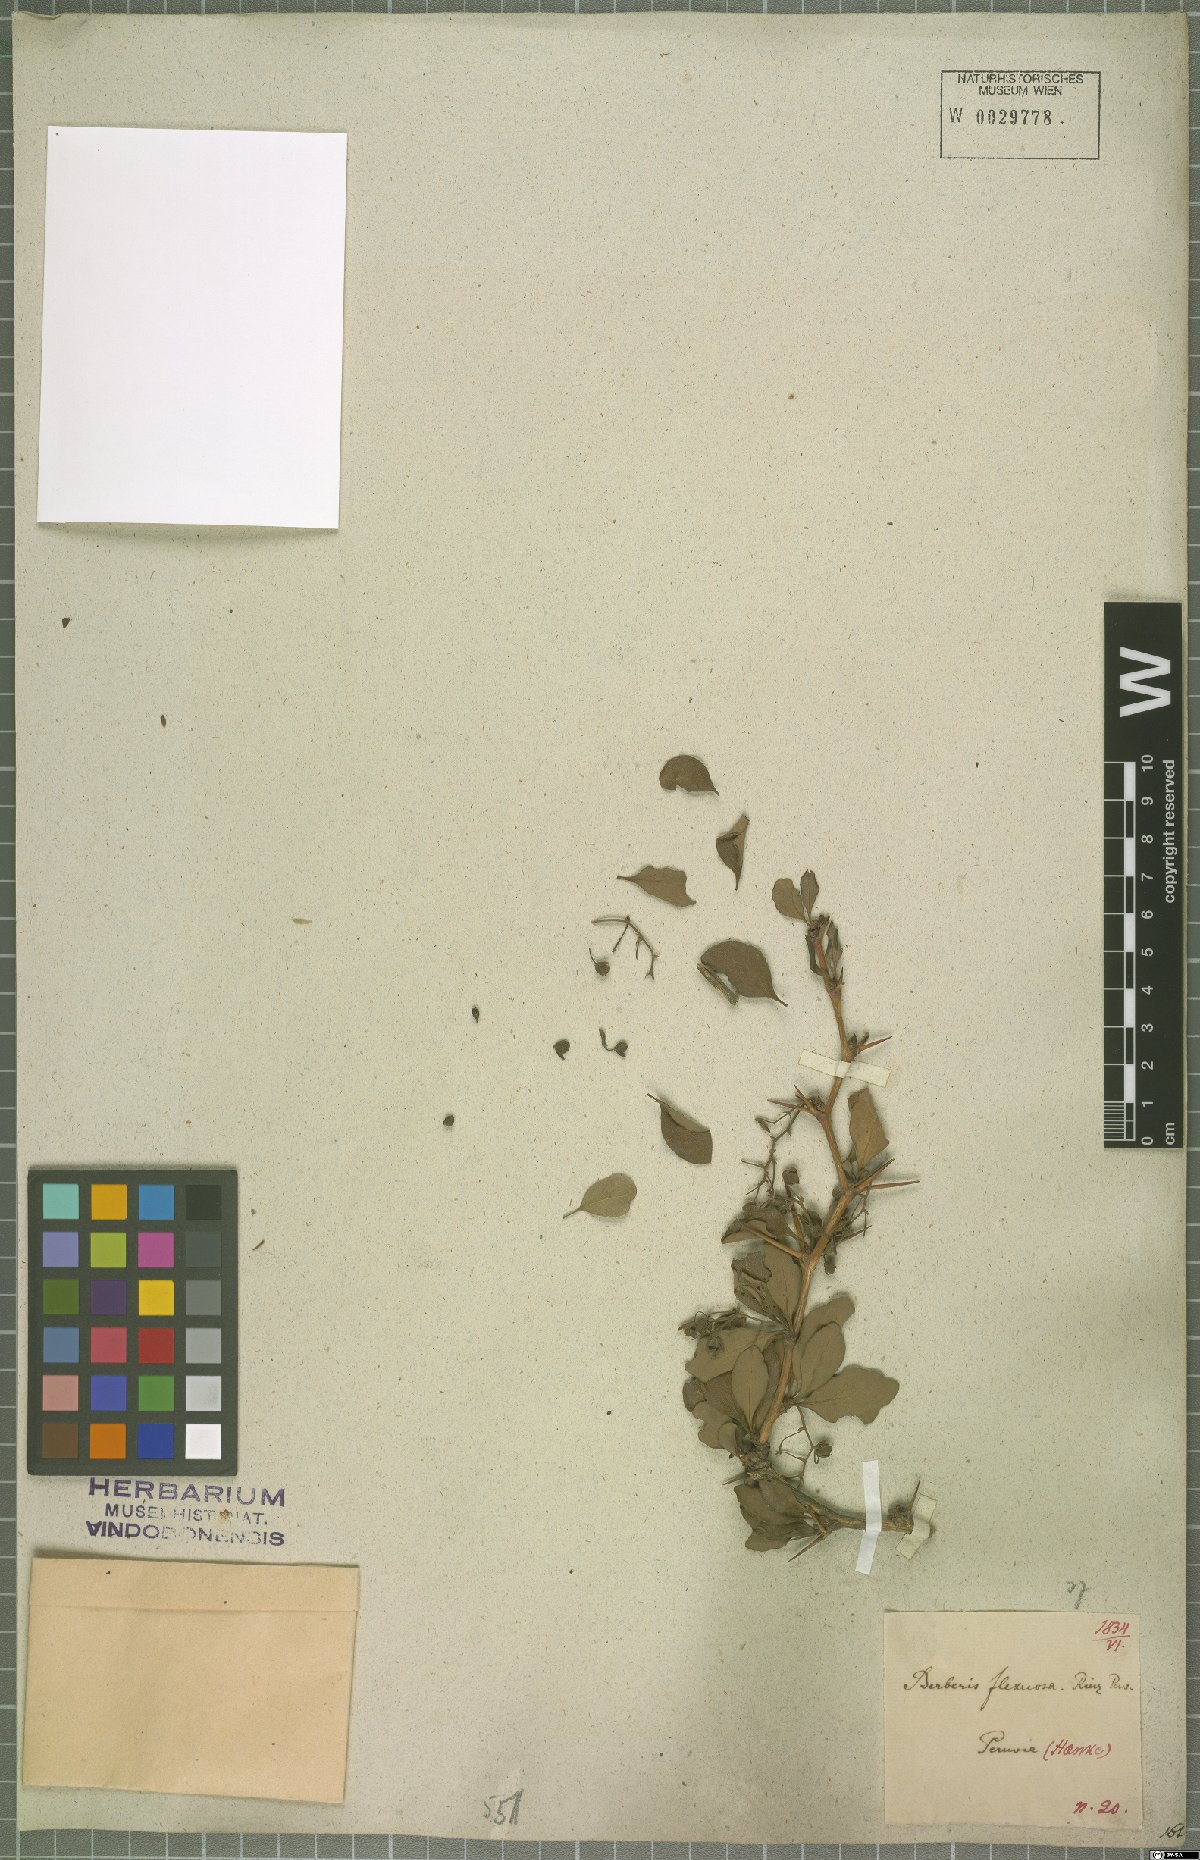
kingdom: Plantae
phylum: Tracheophyta
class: Magnoliopsida
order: Ranunculales
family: Berberidaceae
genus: Berberis
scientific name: Berberis flexuosa
